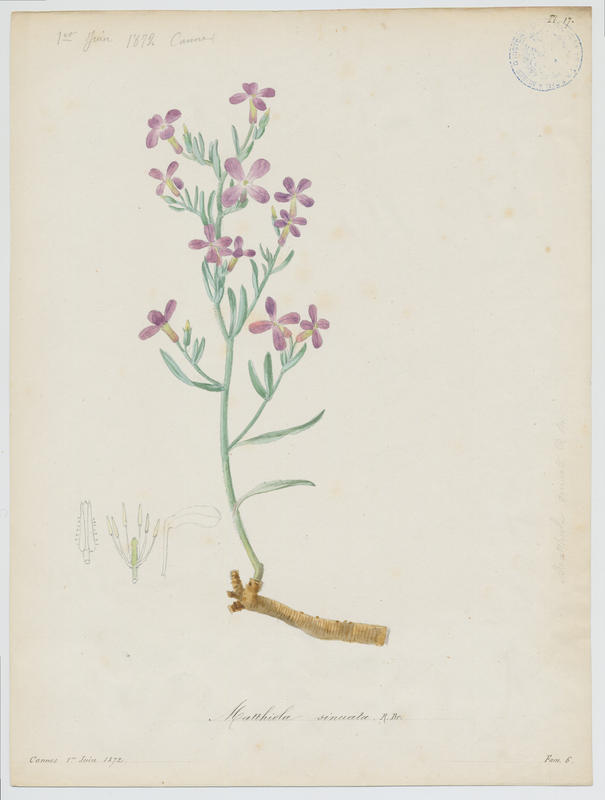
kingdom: Plantae
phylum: Tracheophyta
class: Magnoliopsida
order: Brassicales
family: Brassicaceae
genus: Matthiola
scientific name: Matthiola sinuata
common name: Sea stock
